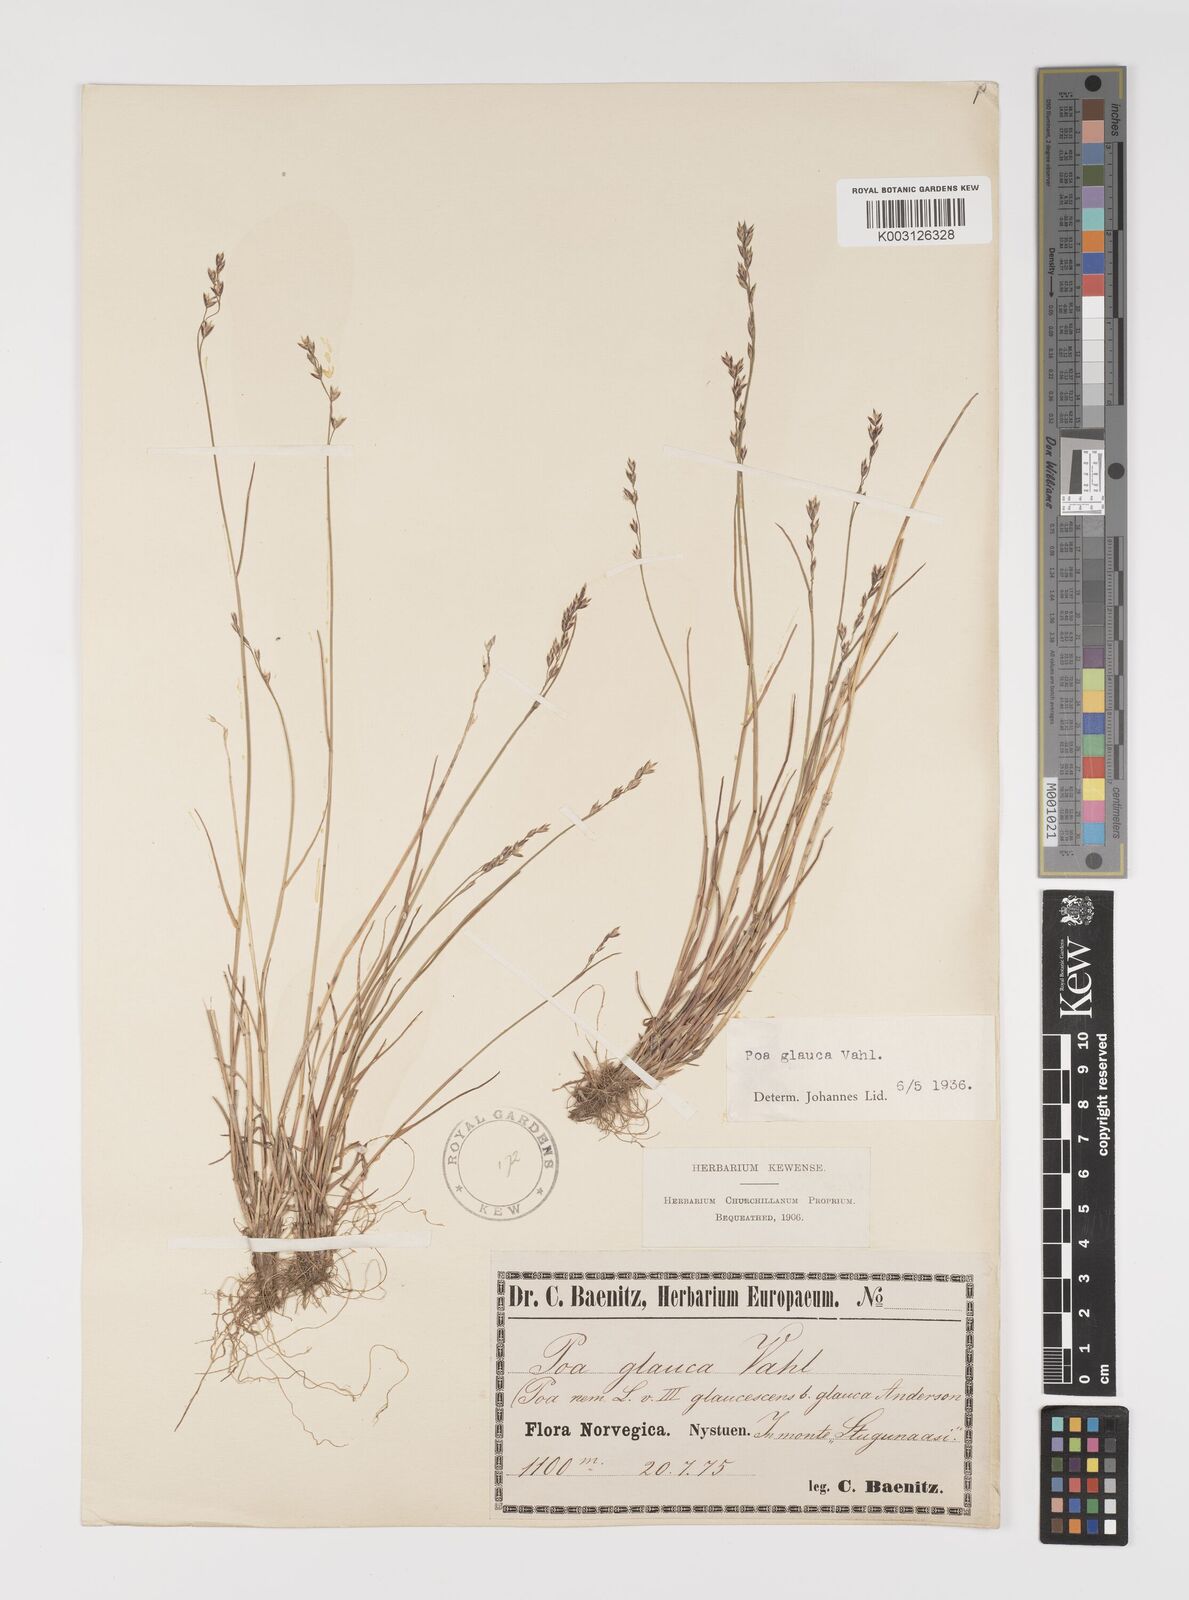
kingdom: Plantae
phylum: Tracheophyta
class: Liliopsida
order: Poales
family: Poaceae
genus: Poa
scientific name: Poa glauca
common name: Glaucous bluegrass
